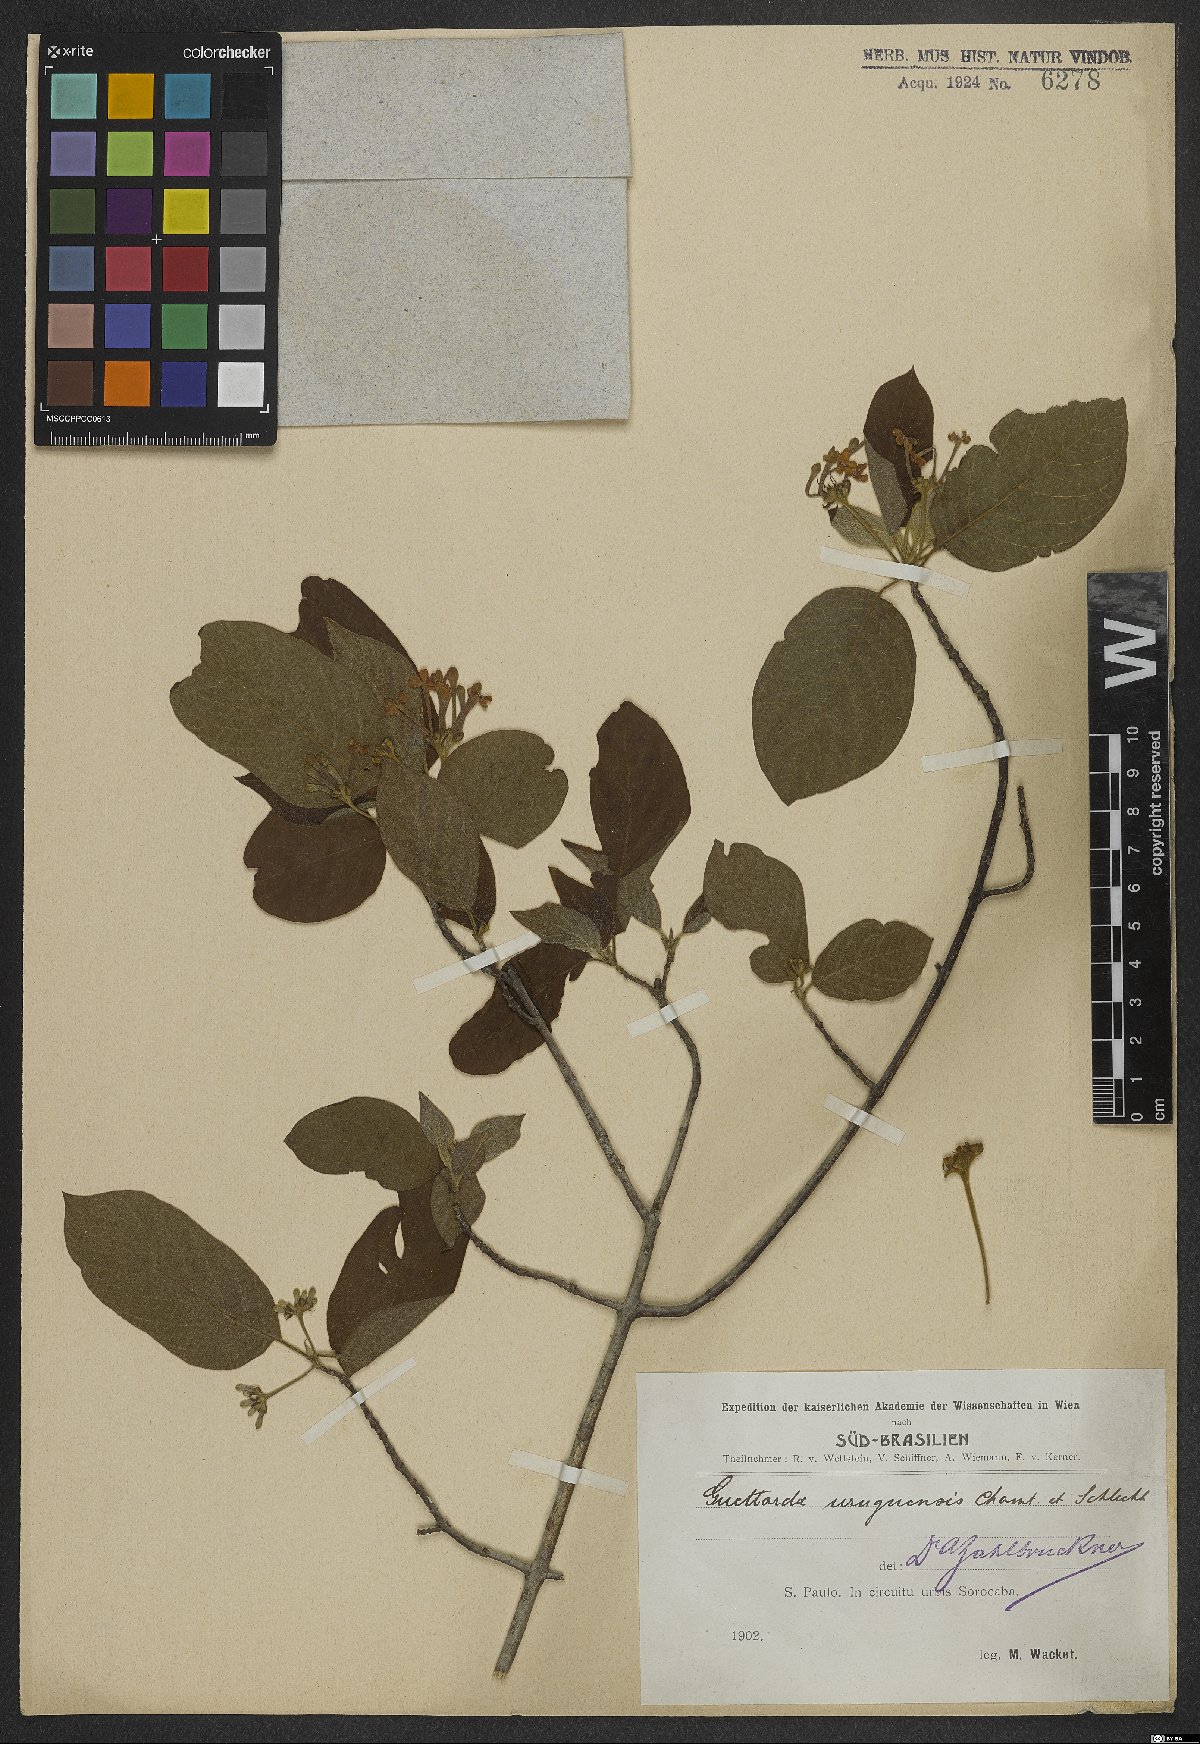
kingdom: Plantae
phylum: Tracheophyta
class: Magnoliopsida
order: Gentianales
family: Rubiaceae
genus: Guettarda
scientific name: Guettarda uruguensis
